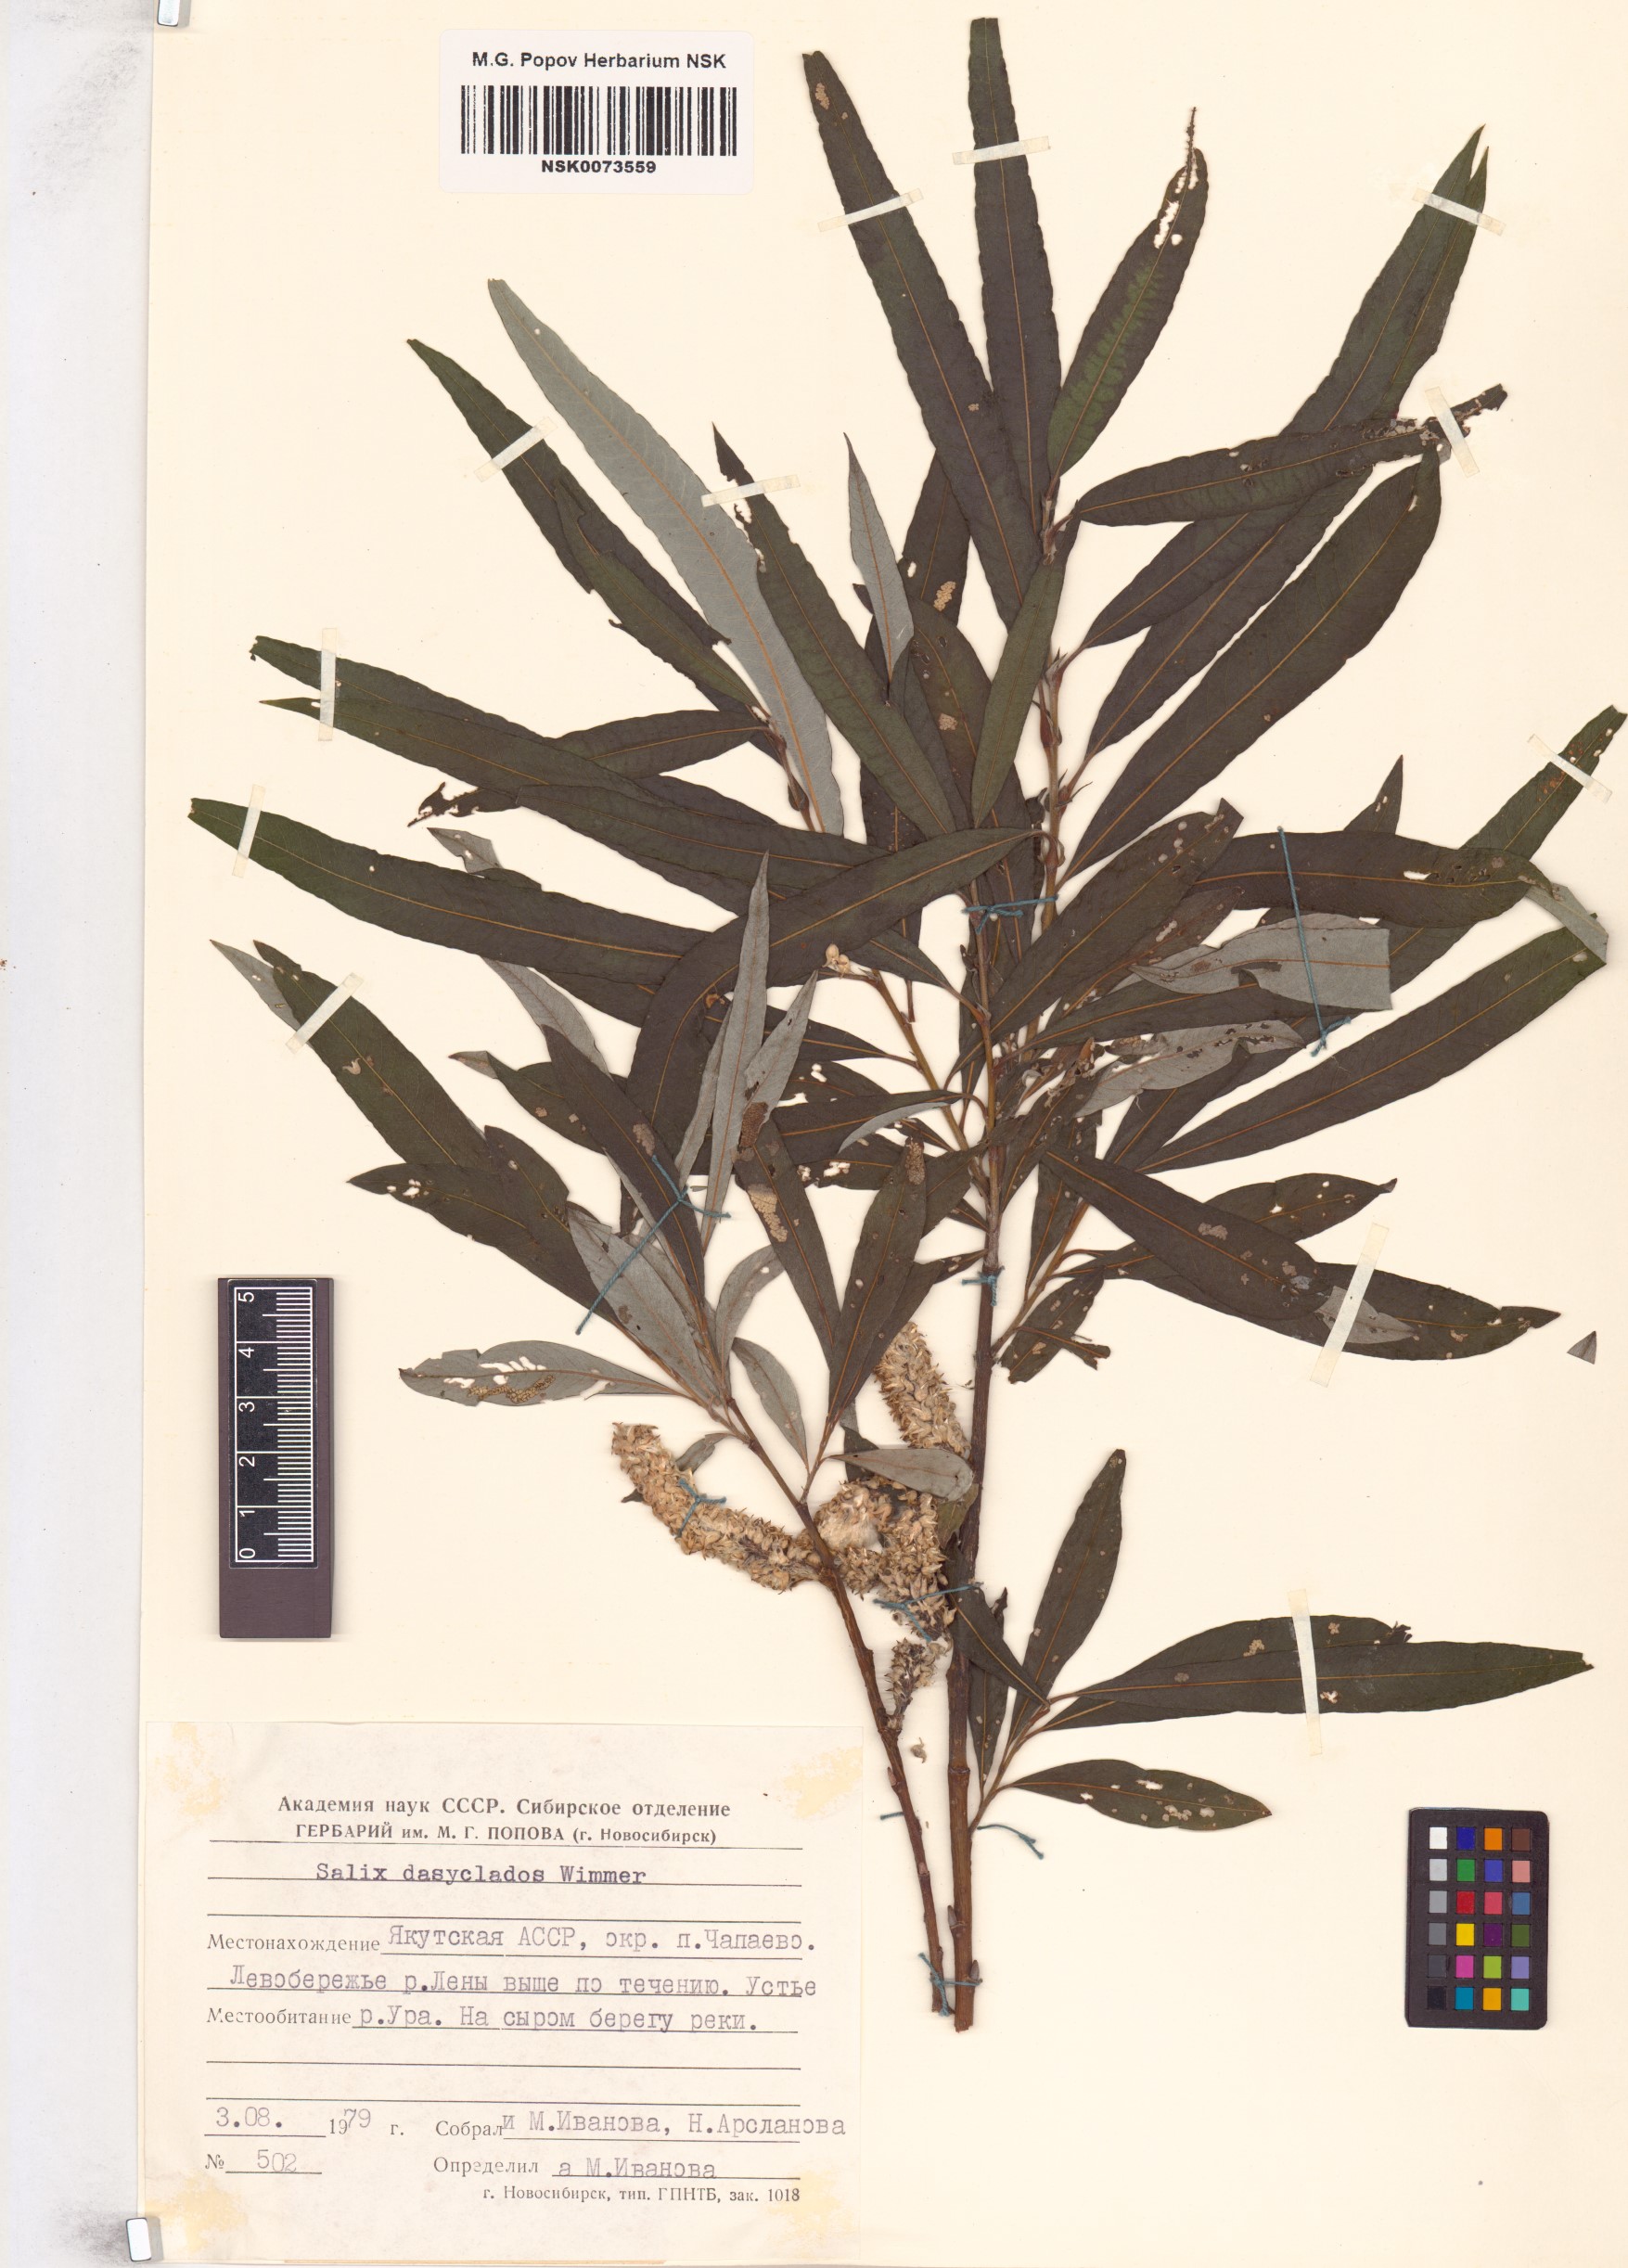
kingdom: Plantae
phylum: Tracheophyta
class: Magnoliopsida
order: Malpighiales
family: Salicaceae
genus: Salix
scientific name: Salix gmelinii
